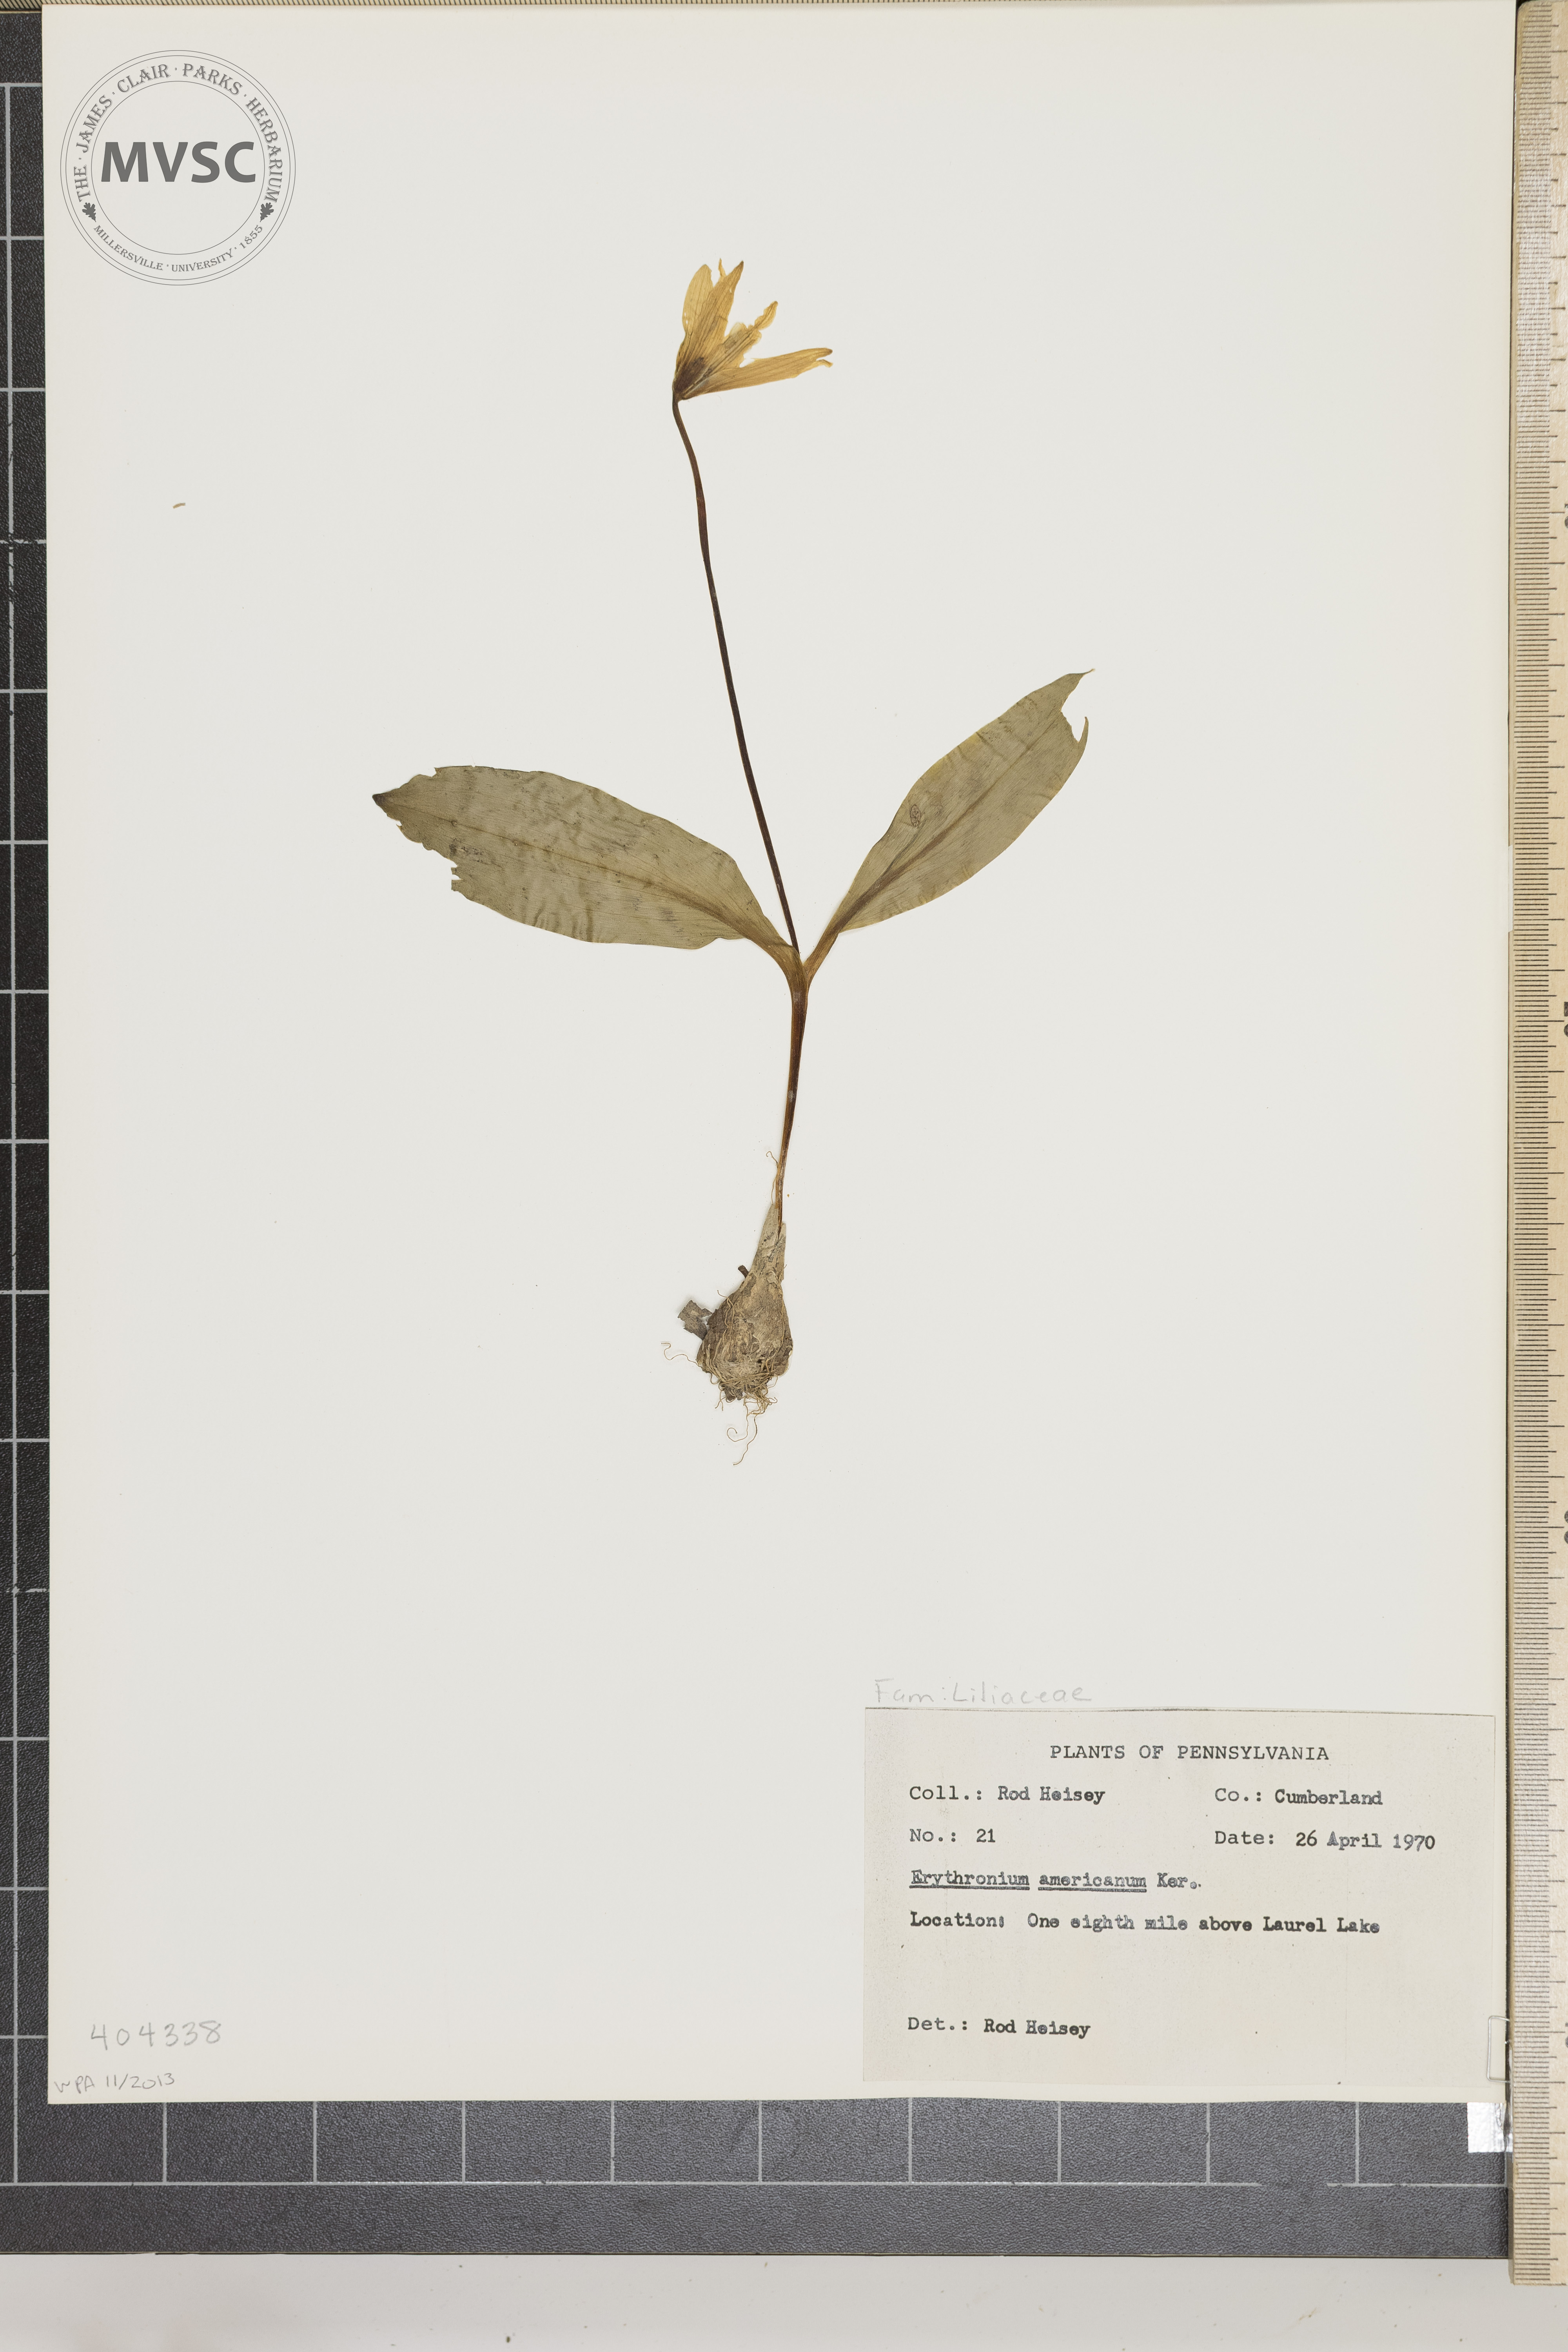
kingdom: Plantae
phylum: Tracheophyta
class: Liliopsida
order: Liliales
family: Liliaceae
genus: Erythronium
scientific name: Erythronium americanum
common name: Yellow adder's-tongue
